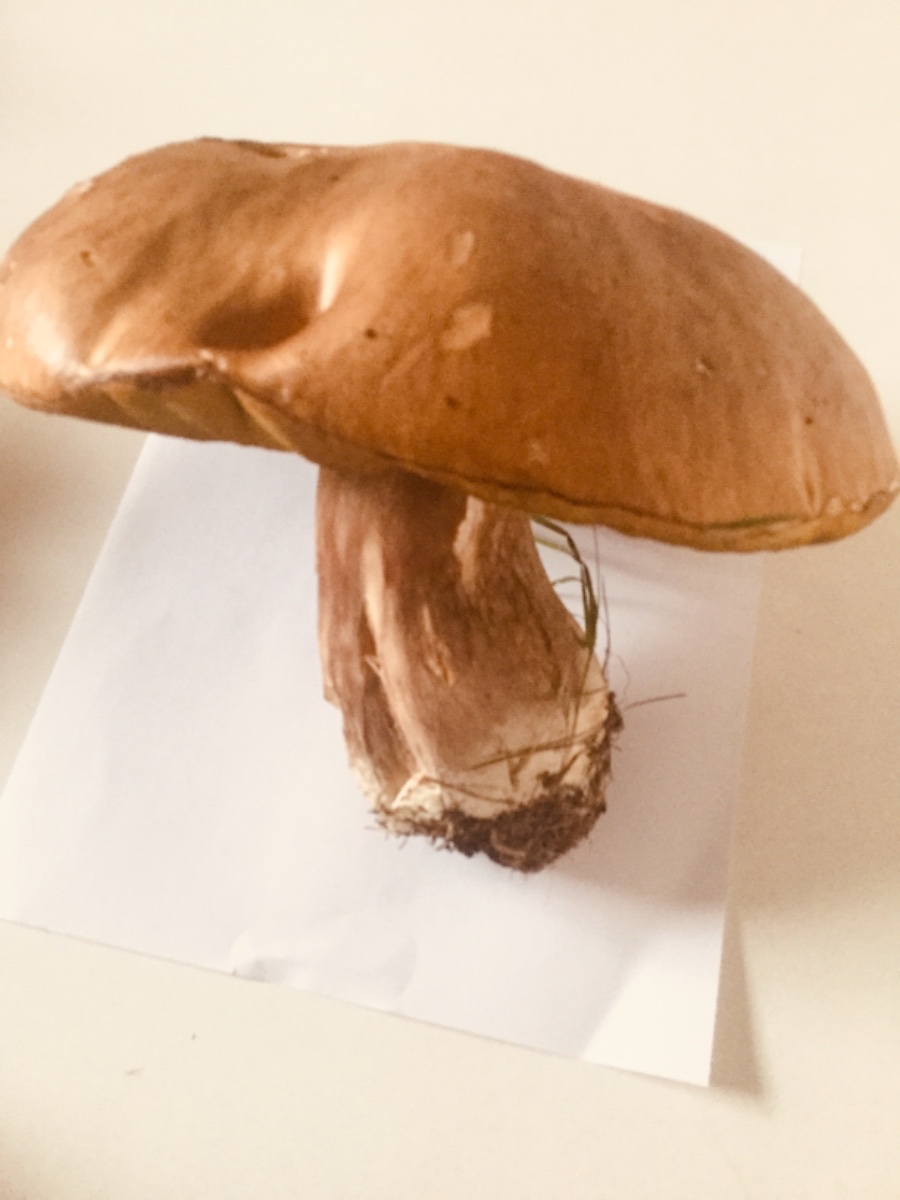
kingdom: Fungi
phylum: Basidiomycota
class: Agaricomycetes
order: Boletales
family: Boletaceae
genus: Boletus
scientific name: Boletus edulis
